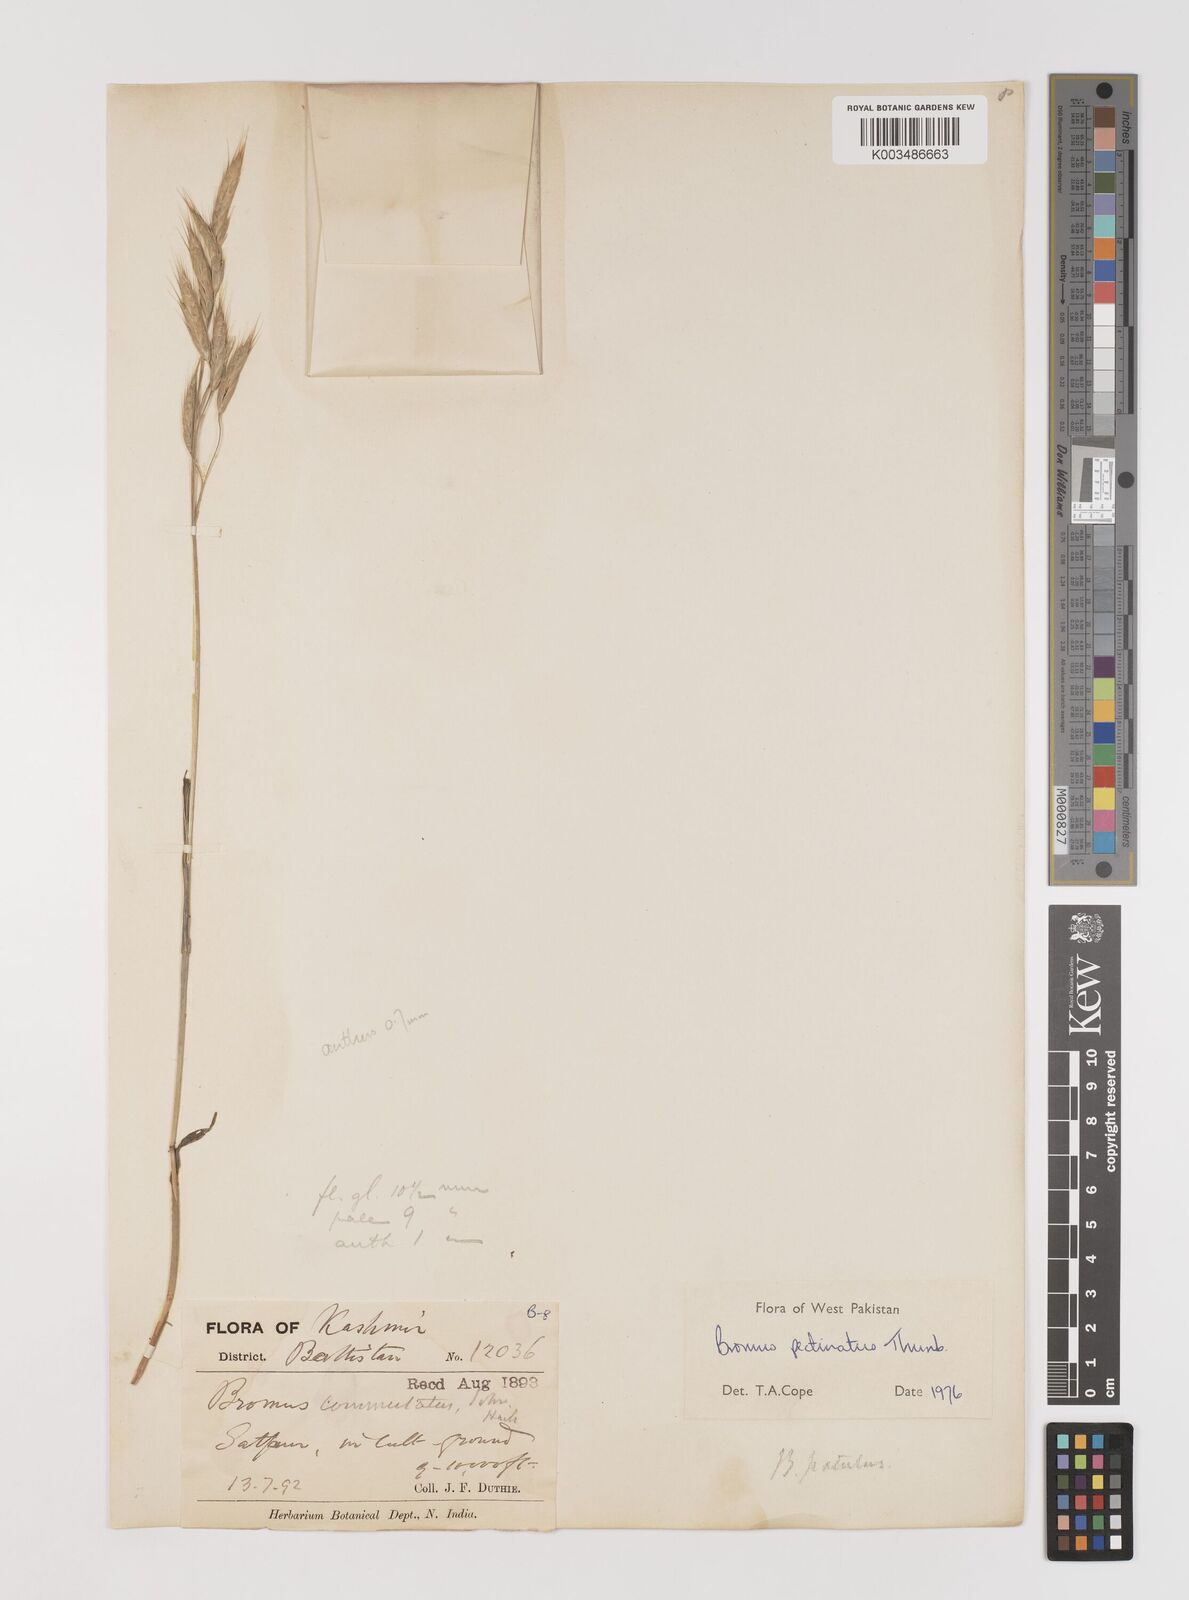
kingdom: Plantae
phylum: Tracheophyta
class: Liliopsida
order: Poales
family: Poaceae
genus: Bromus
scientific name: Bromus pectinatus
